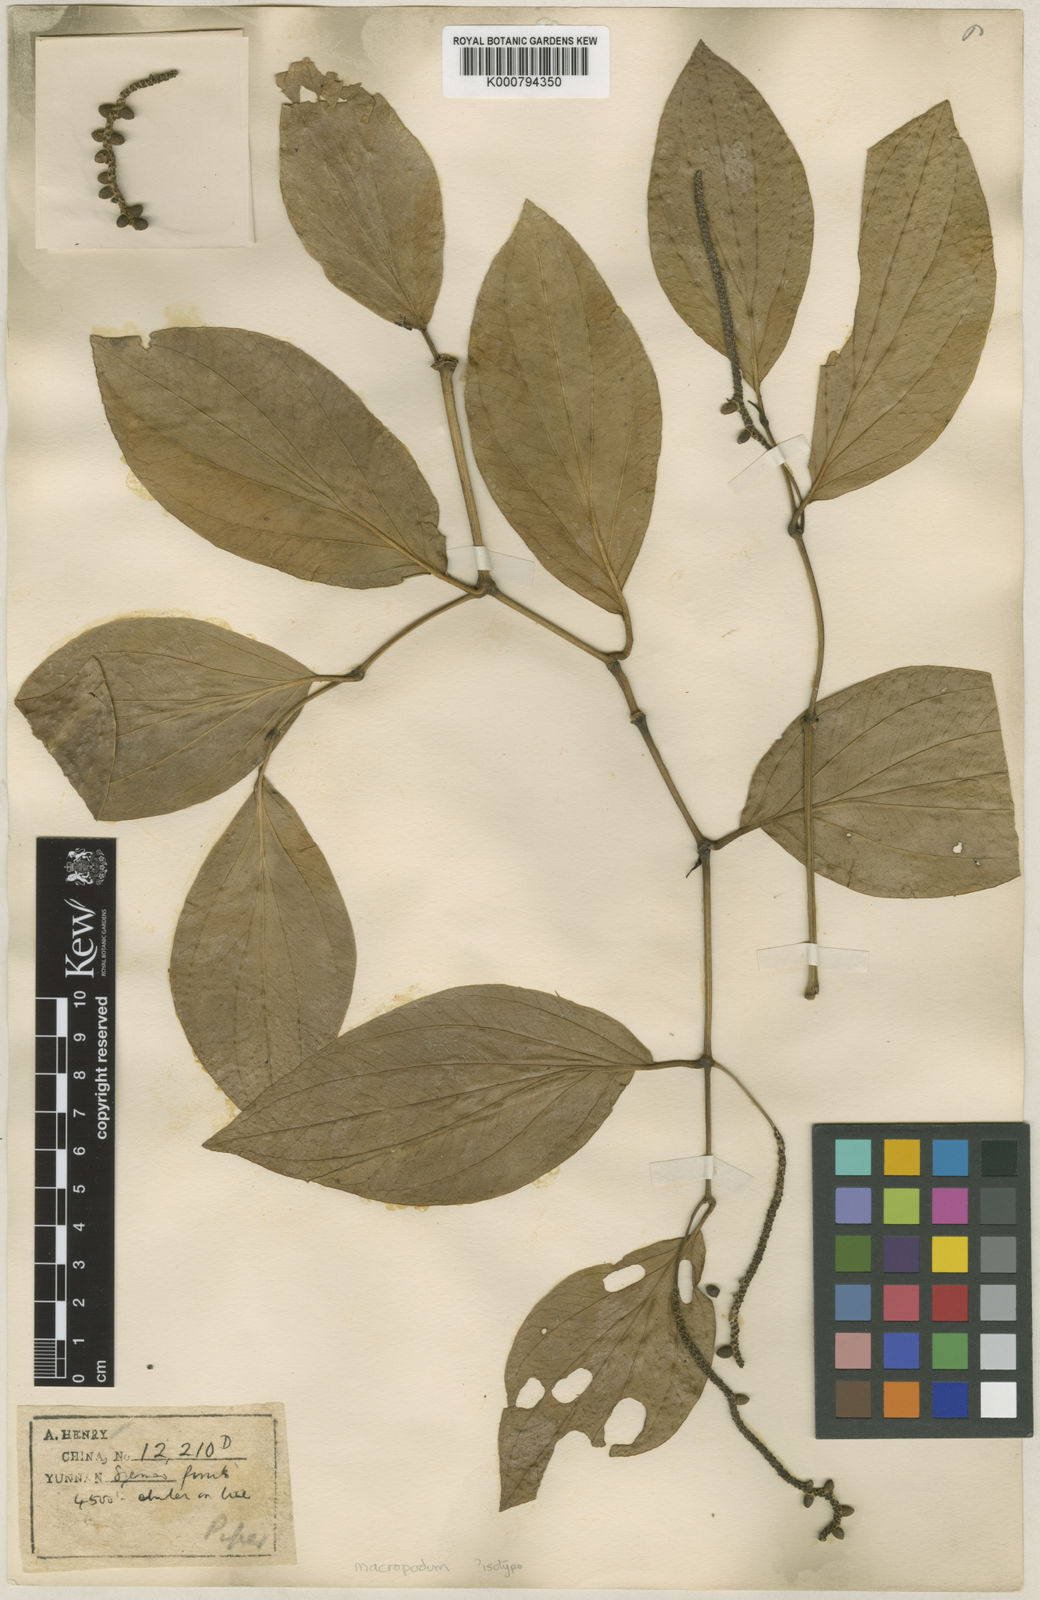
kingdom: Plantae
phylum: Tracheophyta
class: Magnoliopsida
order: Piperales
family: Piperaceae
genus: Piper
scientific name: Piper macropodum
